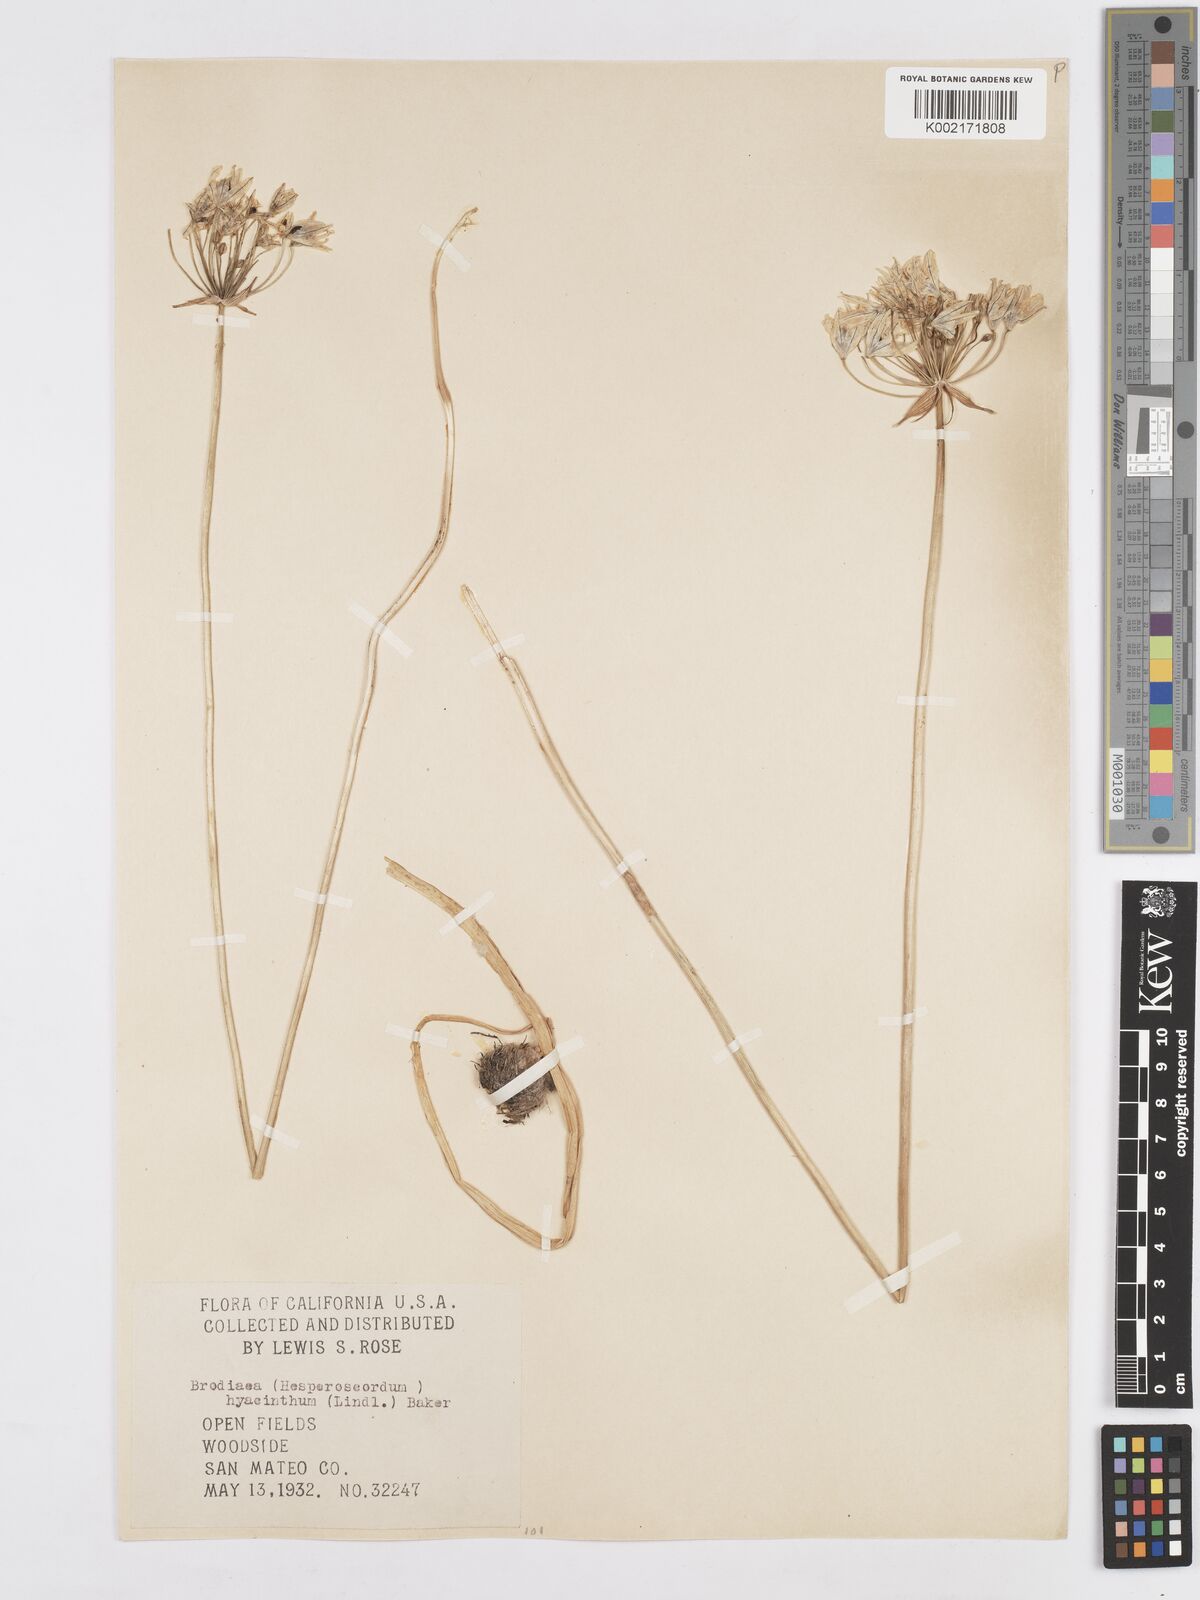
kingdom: Plantae
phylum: Tracheophyta
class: Liliopsida
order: Asparagales
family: Asparagaceae
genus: Triteleia
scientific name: Triteleia hyacinthina
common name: White brodiaea
